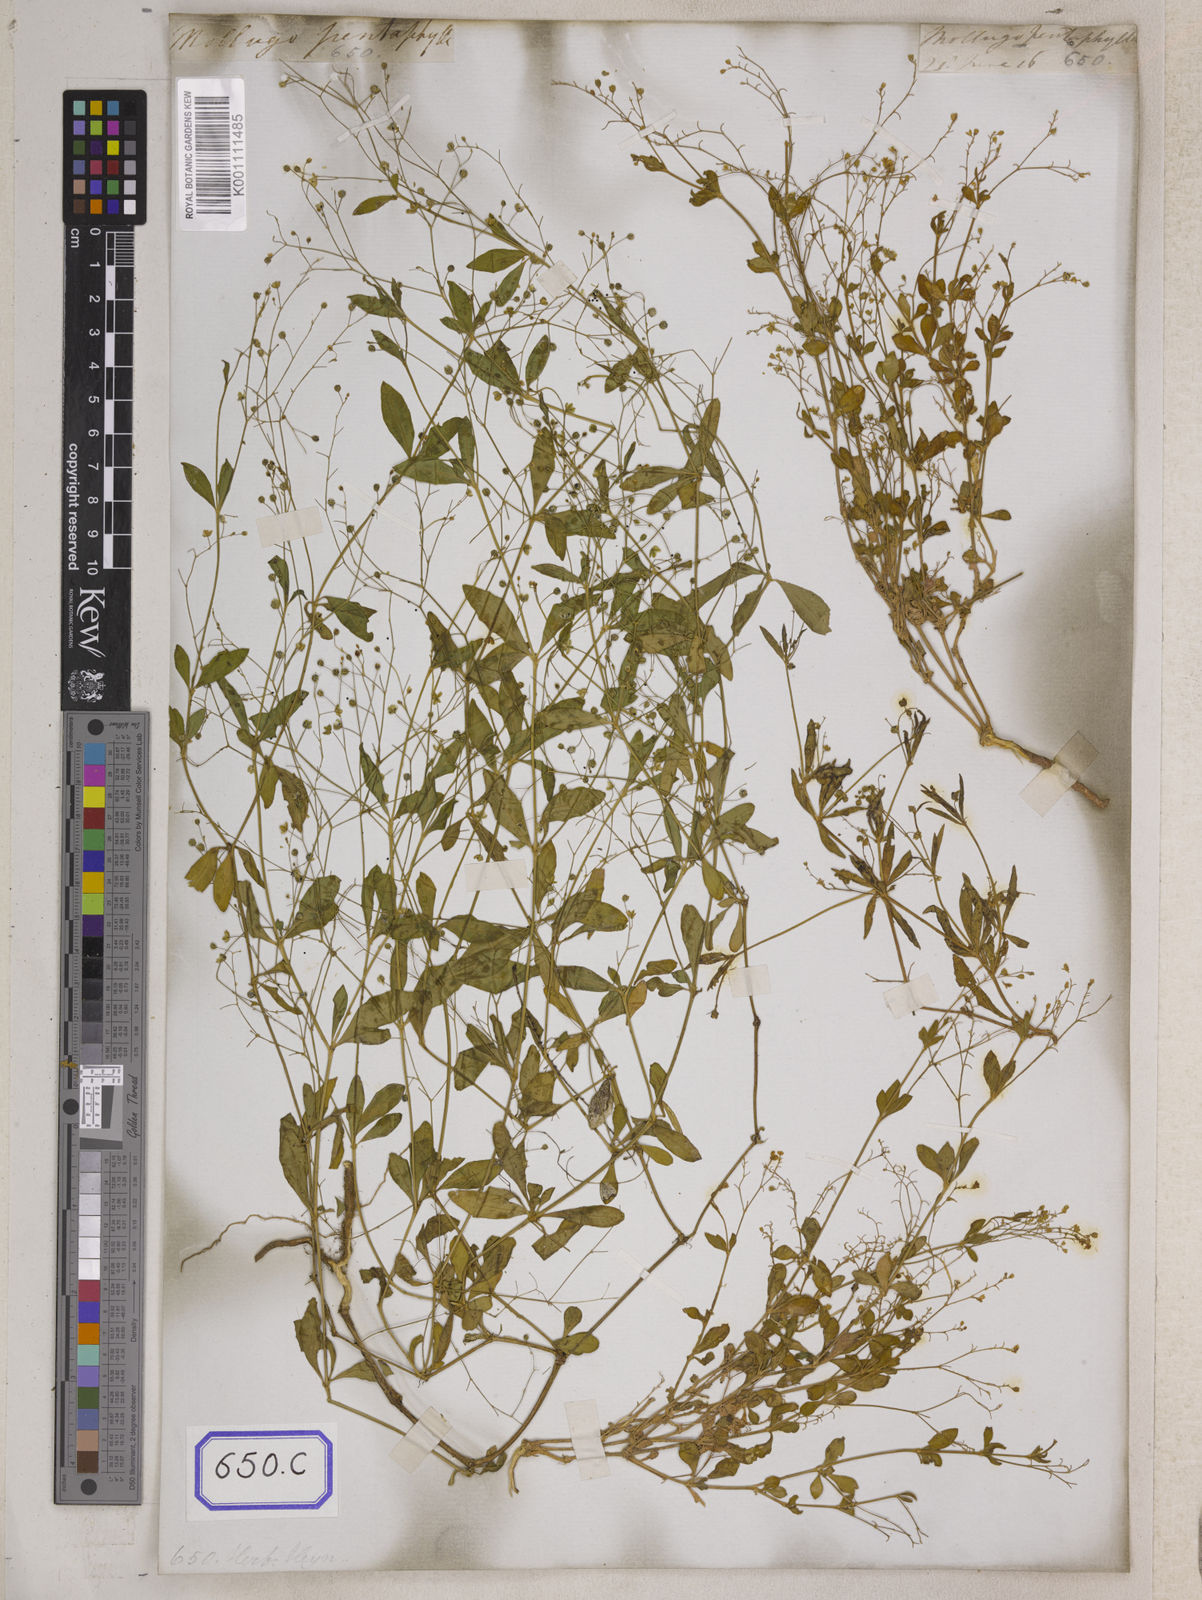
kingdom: Plantae
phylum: Tracheophyta
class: Magnoliopsida
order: Caryophyllales
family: Molluginaceae
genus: Trigastrotheca
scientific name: Trigastrotheca pentaphylla
